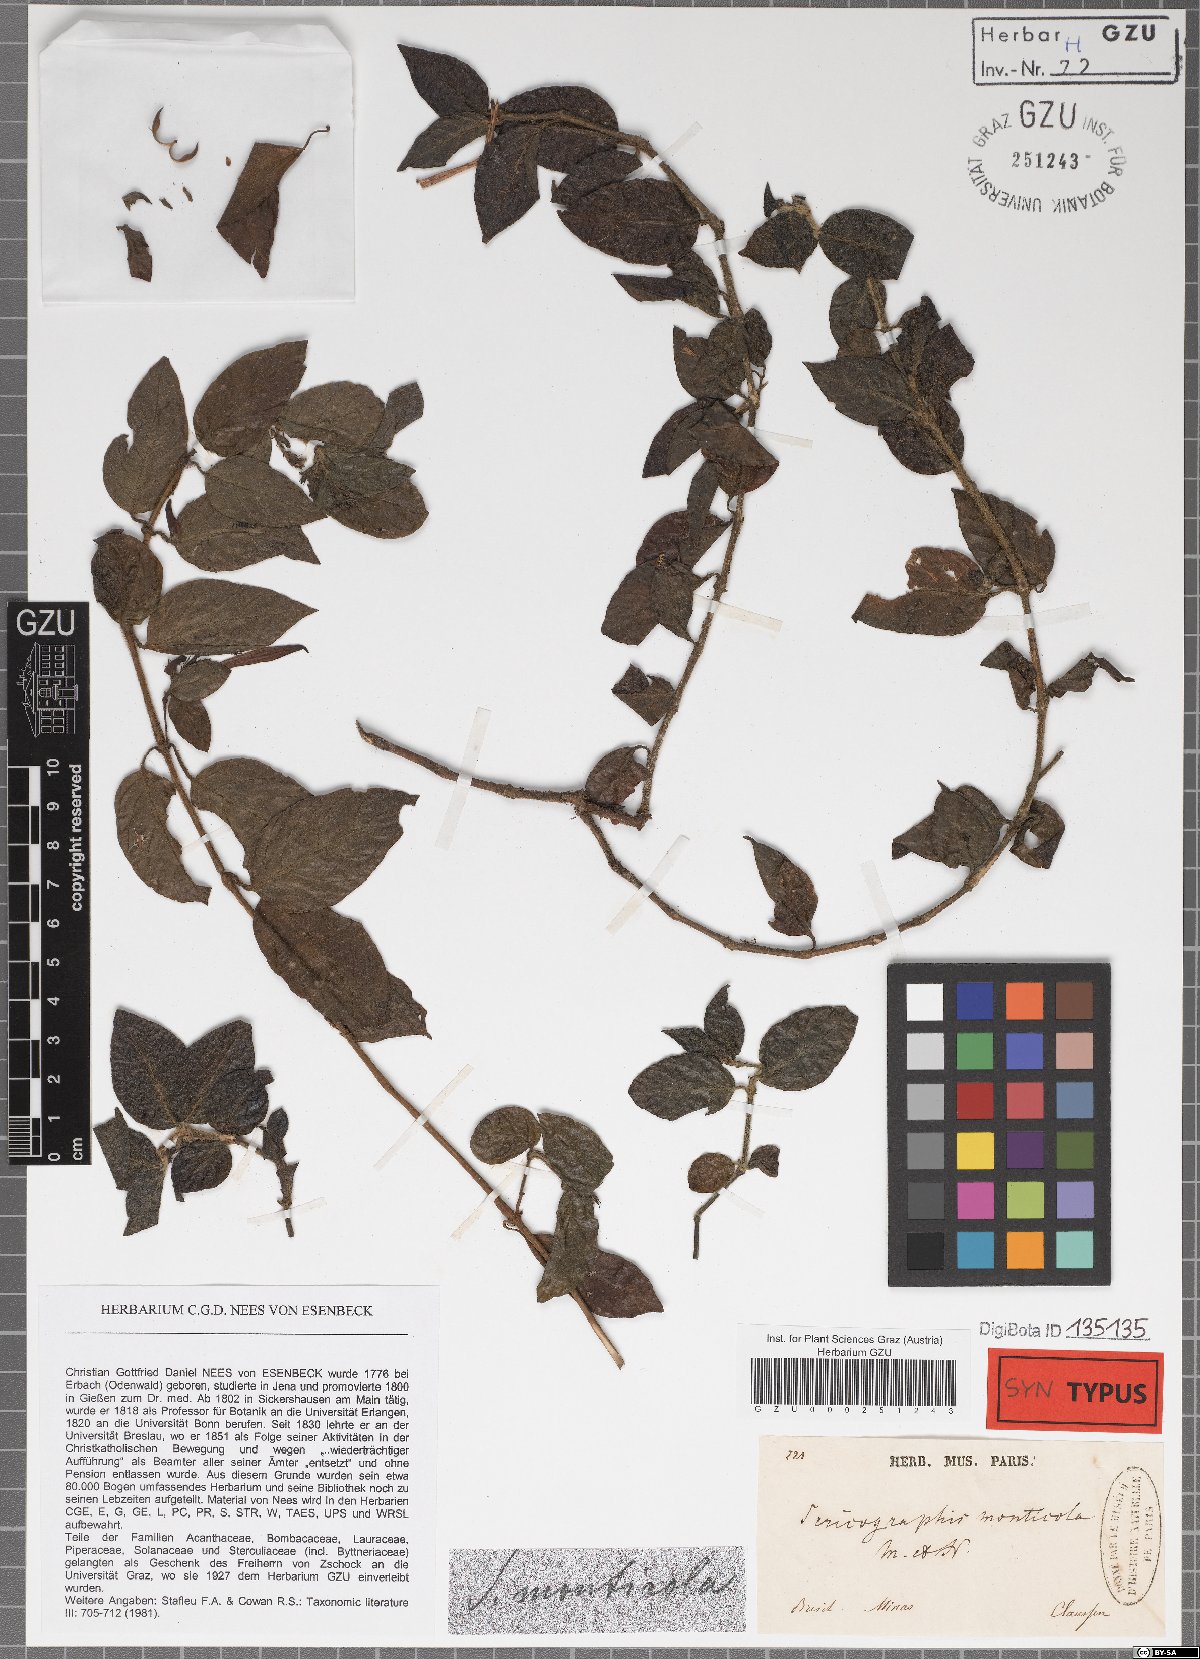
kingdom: Plantae
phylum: Tracheophyta
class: Magnoliopsida
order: Lamiales
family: Acanthaceae
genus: Justicia
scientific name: Justicia monticola
